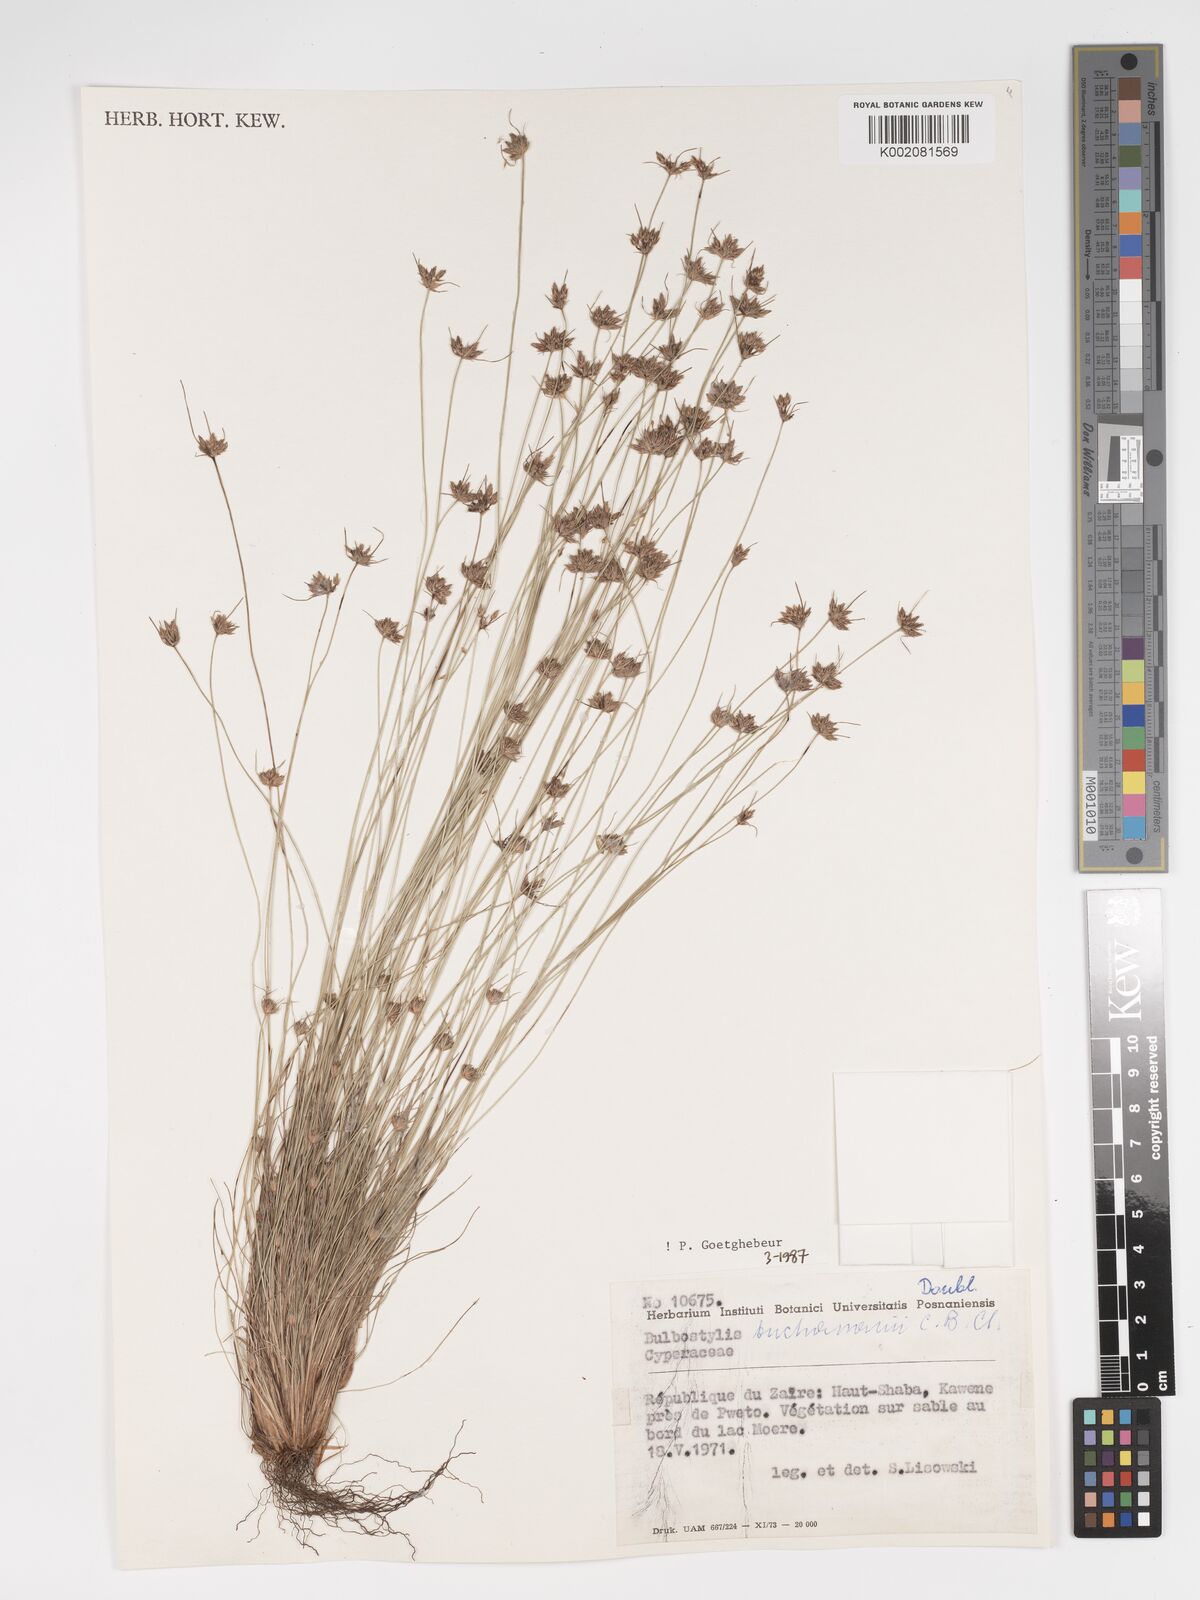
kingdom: Plantae
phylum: Tracheophyta
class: Liliopsida
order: Poales
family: Cyperaceae
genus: Bulbostylis
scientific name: Bulbostylis buchananii
